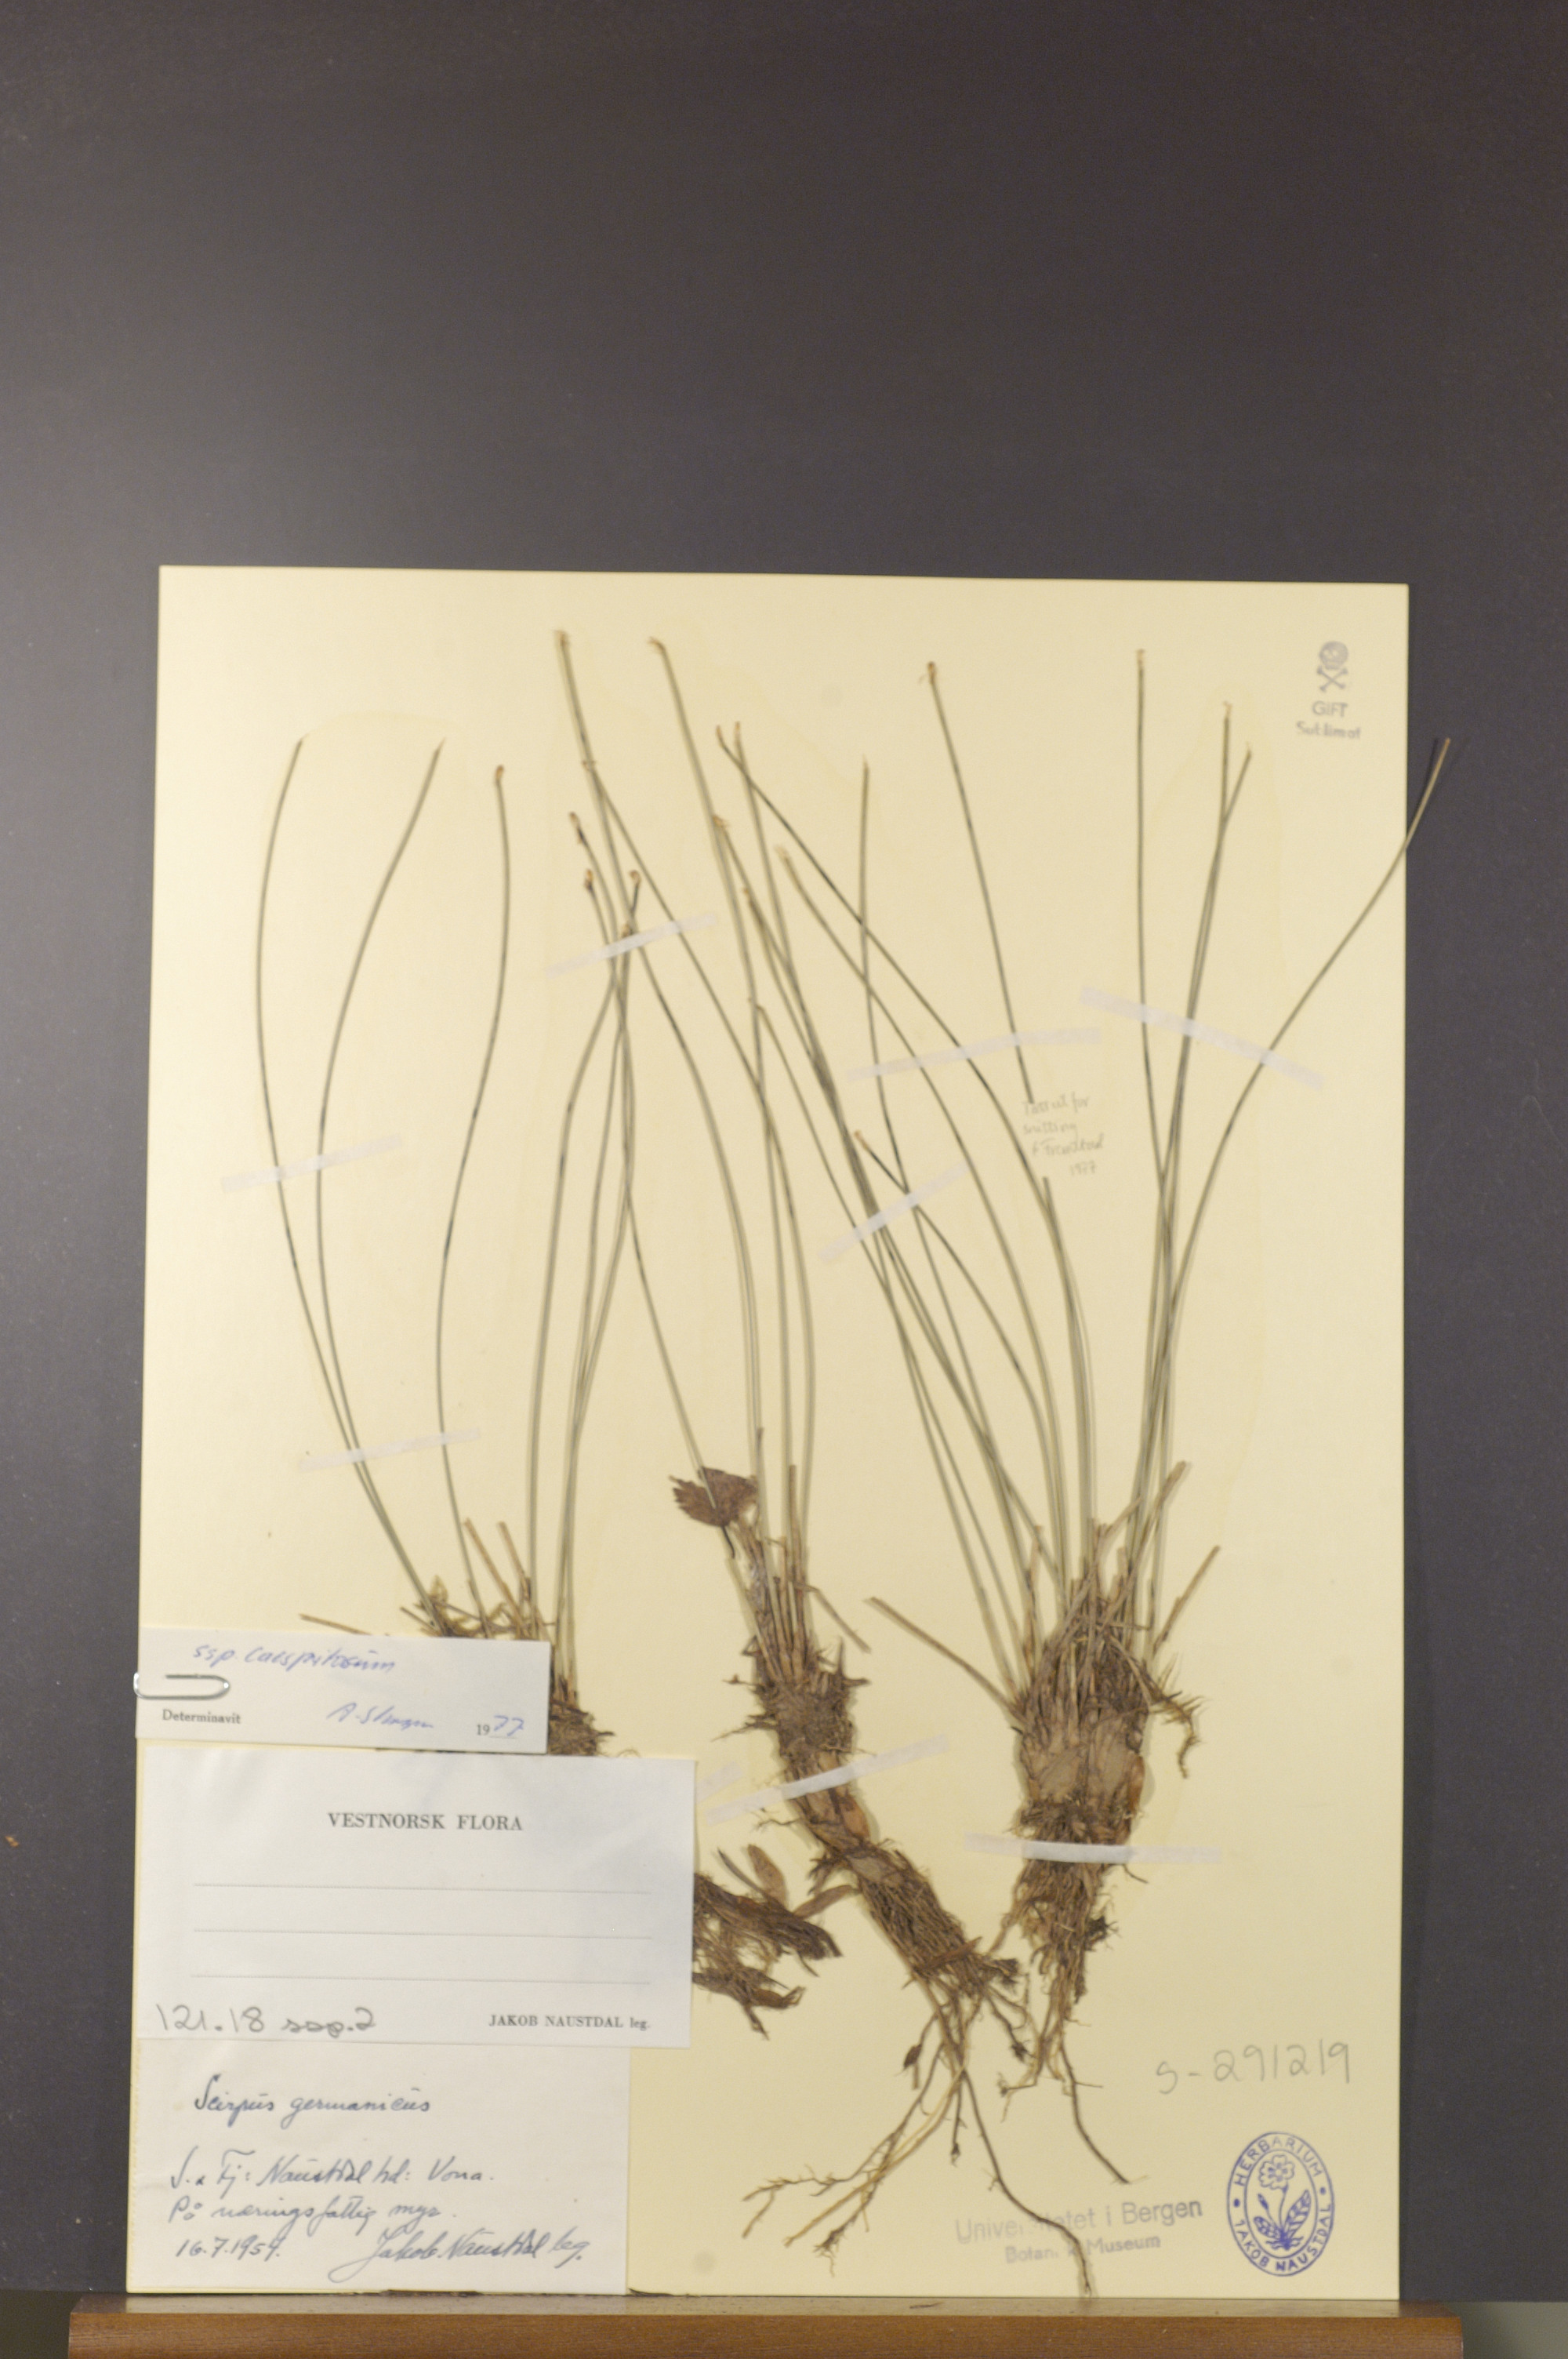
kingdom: Plantae
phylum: Tracheophyta
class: Liliopsida
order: Poales
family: Cyperaceae
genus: Trichophorum
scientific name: Trichophorum cespitosum
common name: Cespitose bulrush
